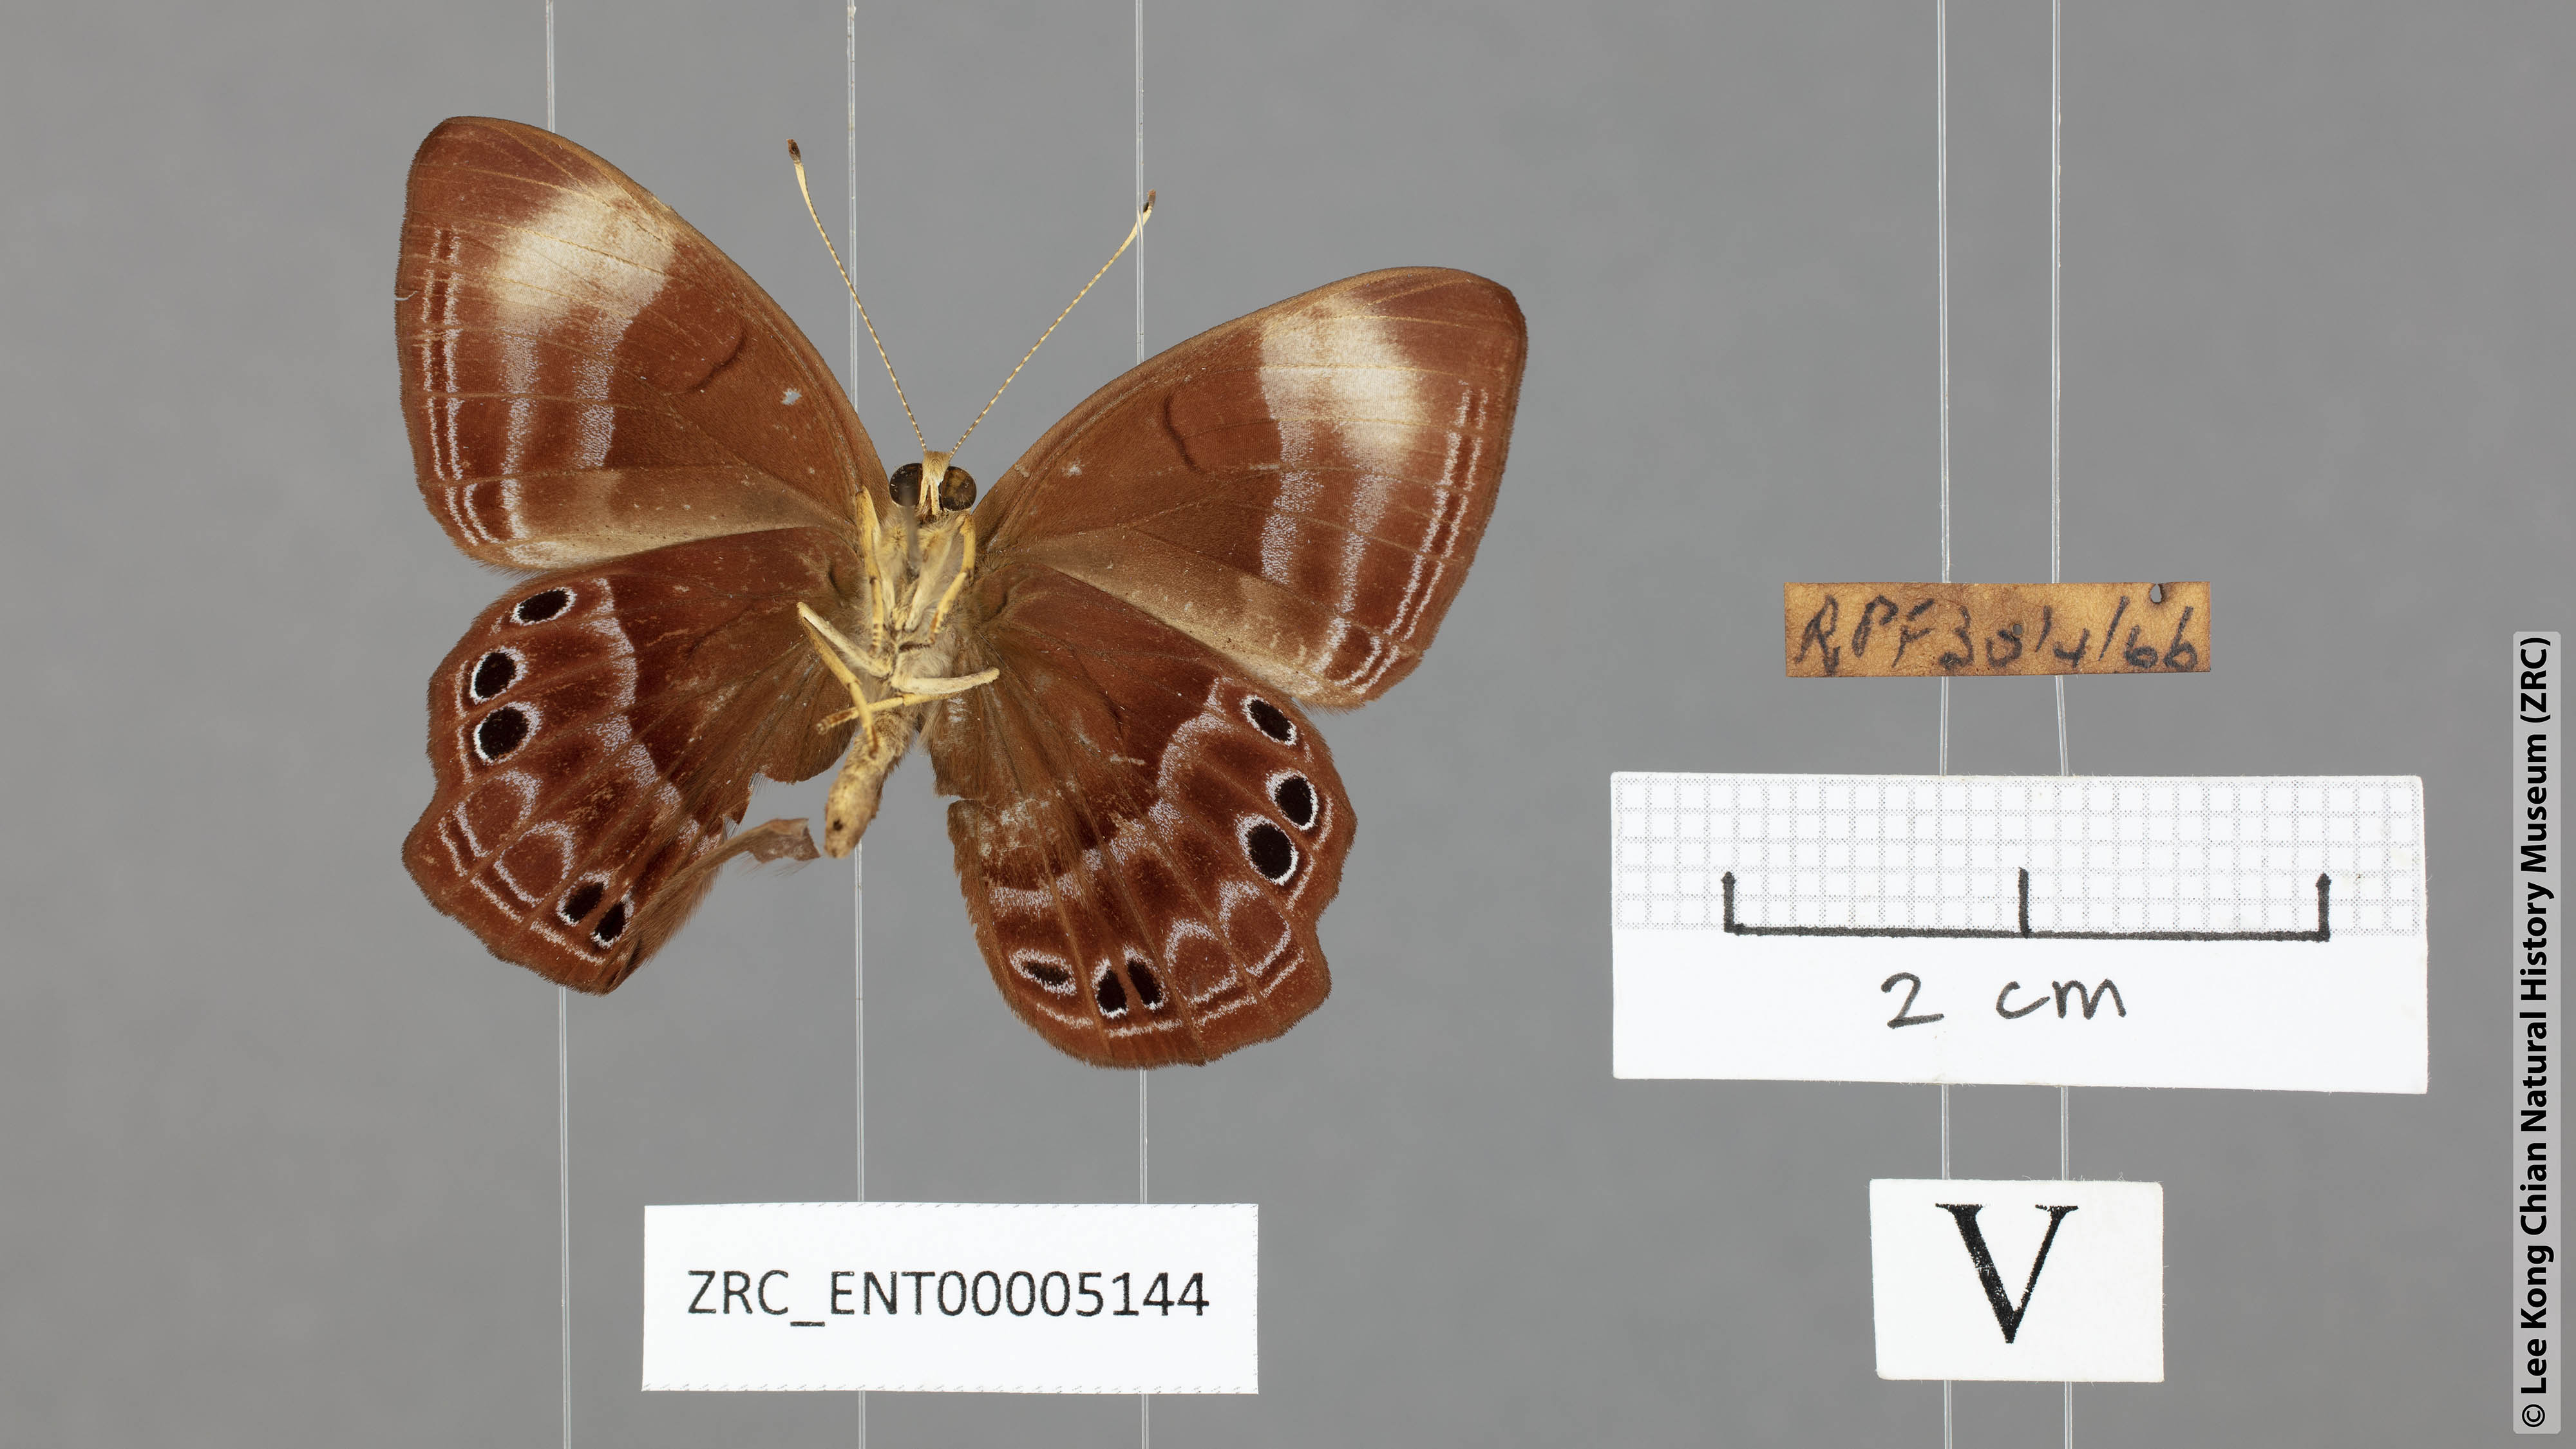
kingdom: Animalia
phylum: Arthropoda
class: Insecta
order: Lepidoptera
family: Lycaenidae
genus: Abisara
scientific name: Abisara geza
